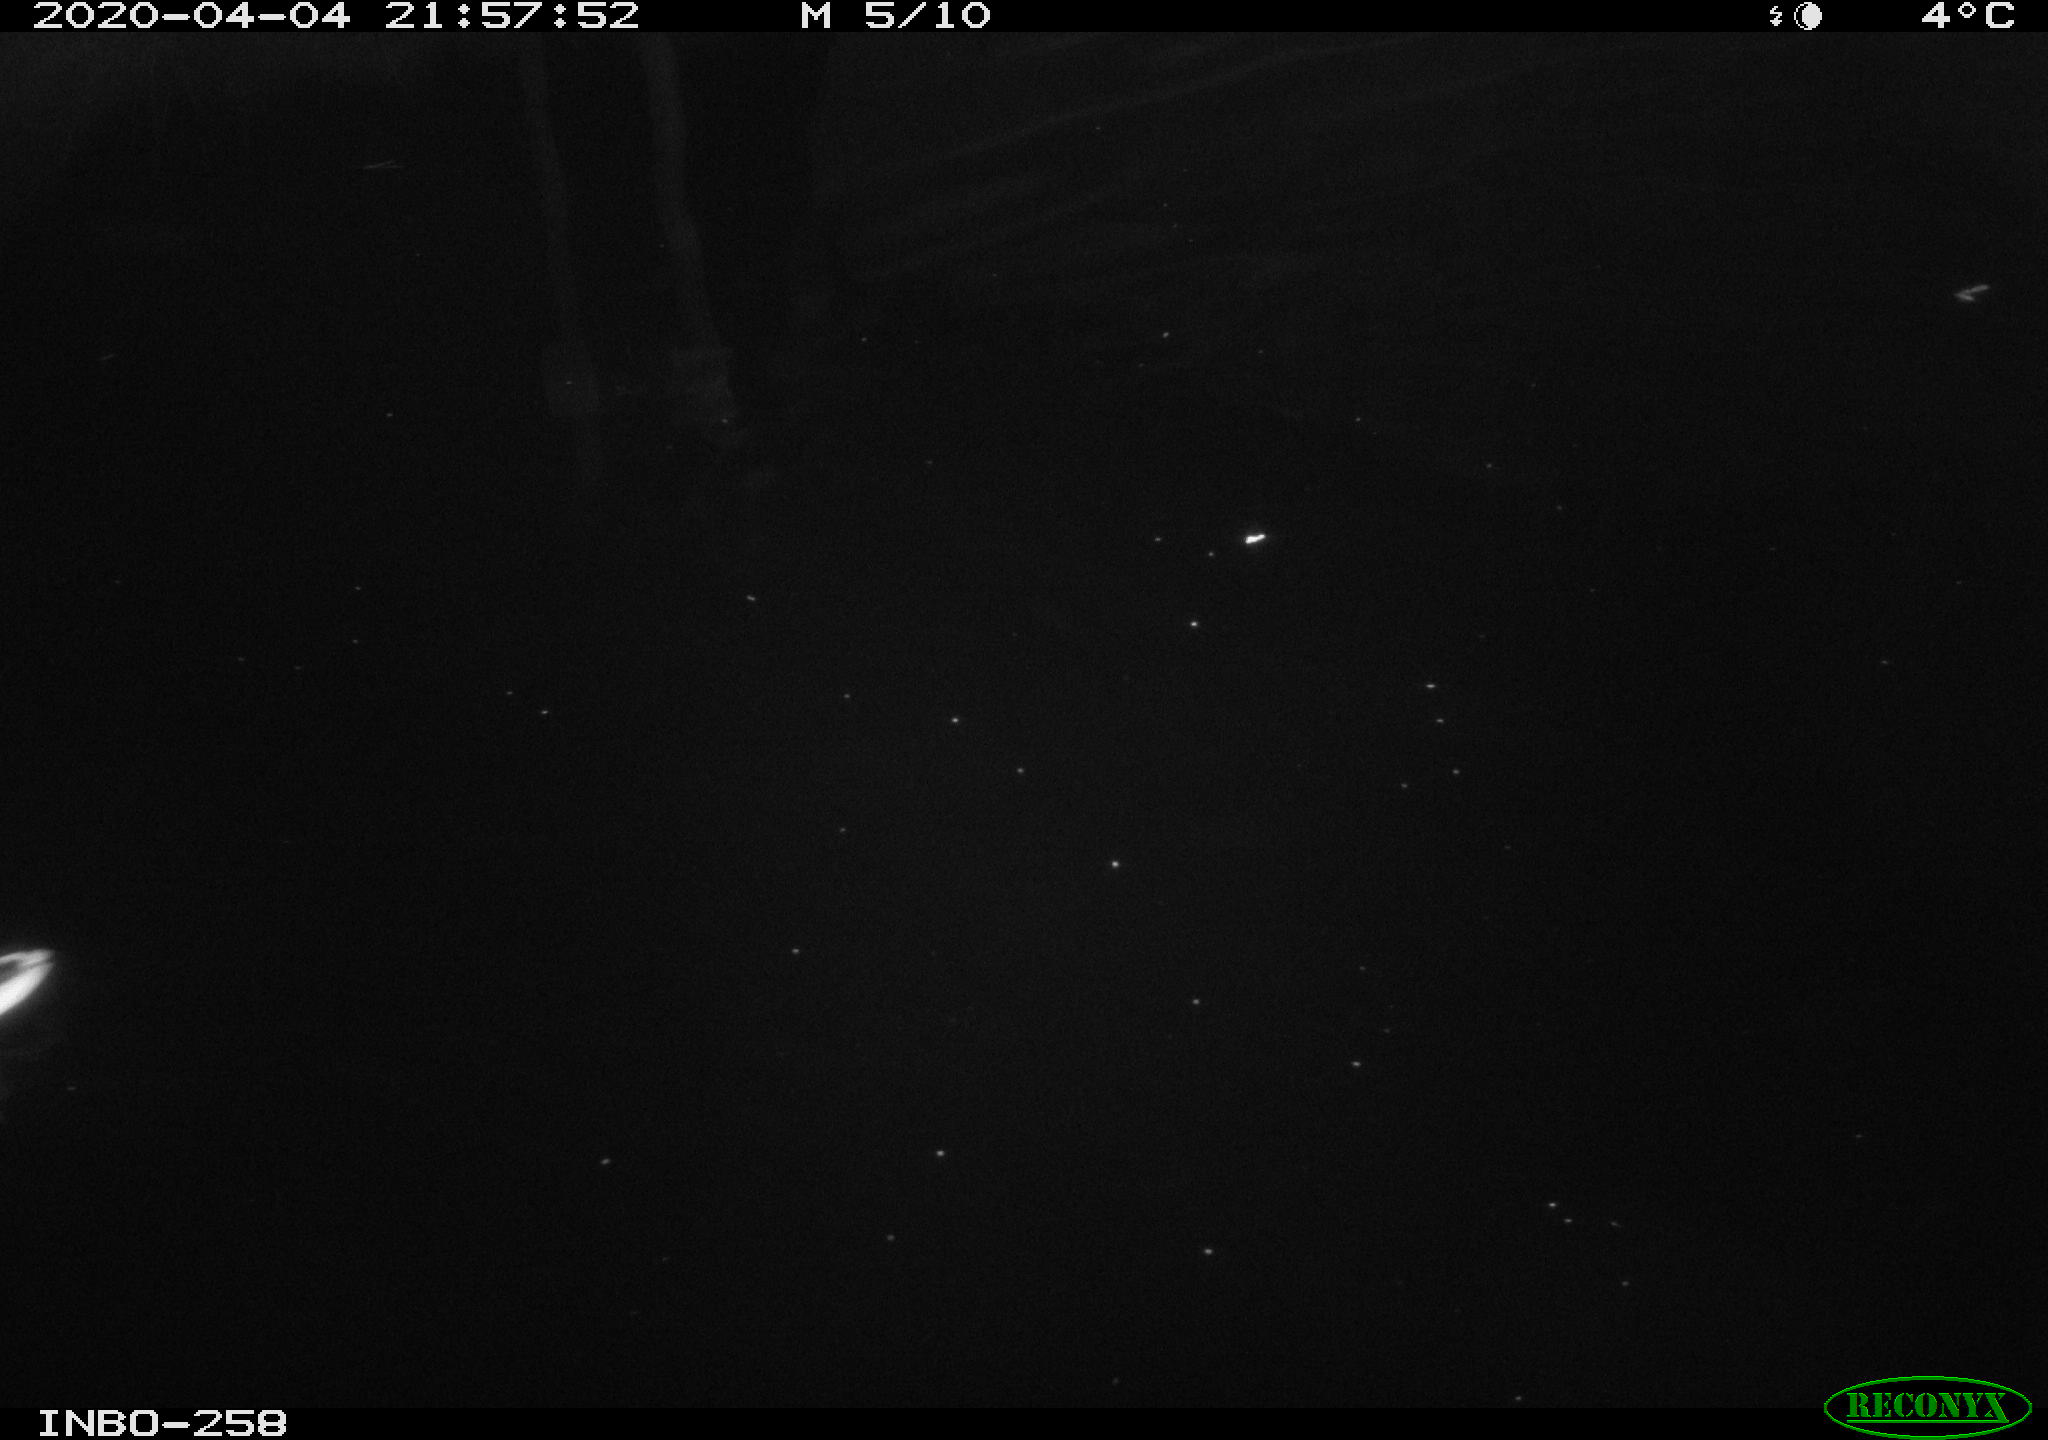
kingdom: Animalia
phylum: Chordata
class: Aves
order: Anseriformes
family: Anatidae
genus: Anas
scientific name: Anas platyrhynchos
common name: Mallard
